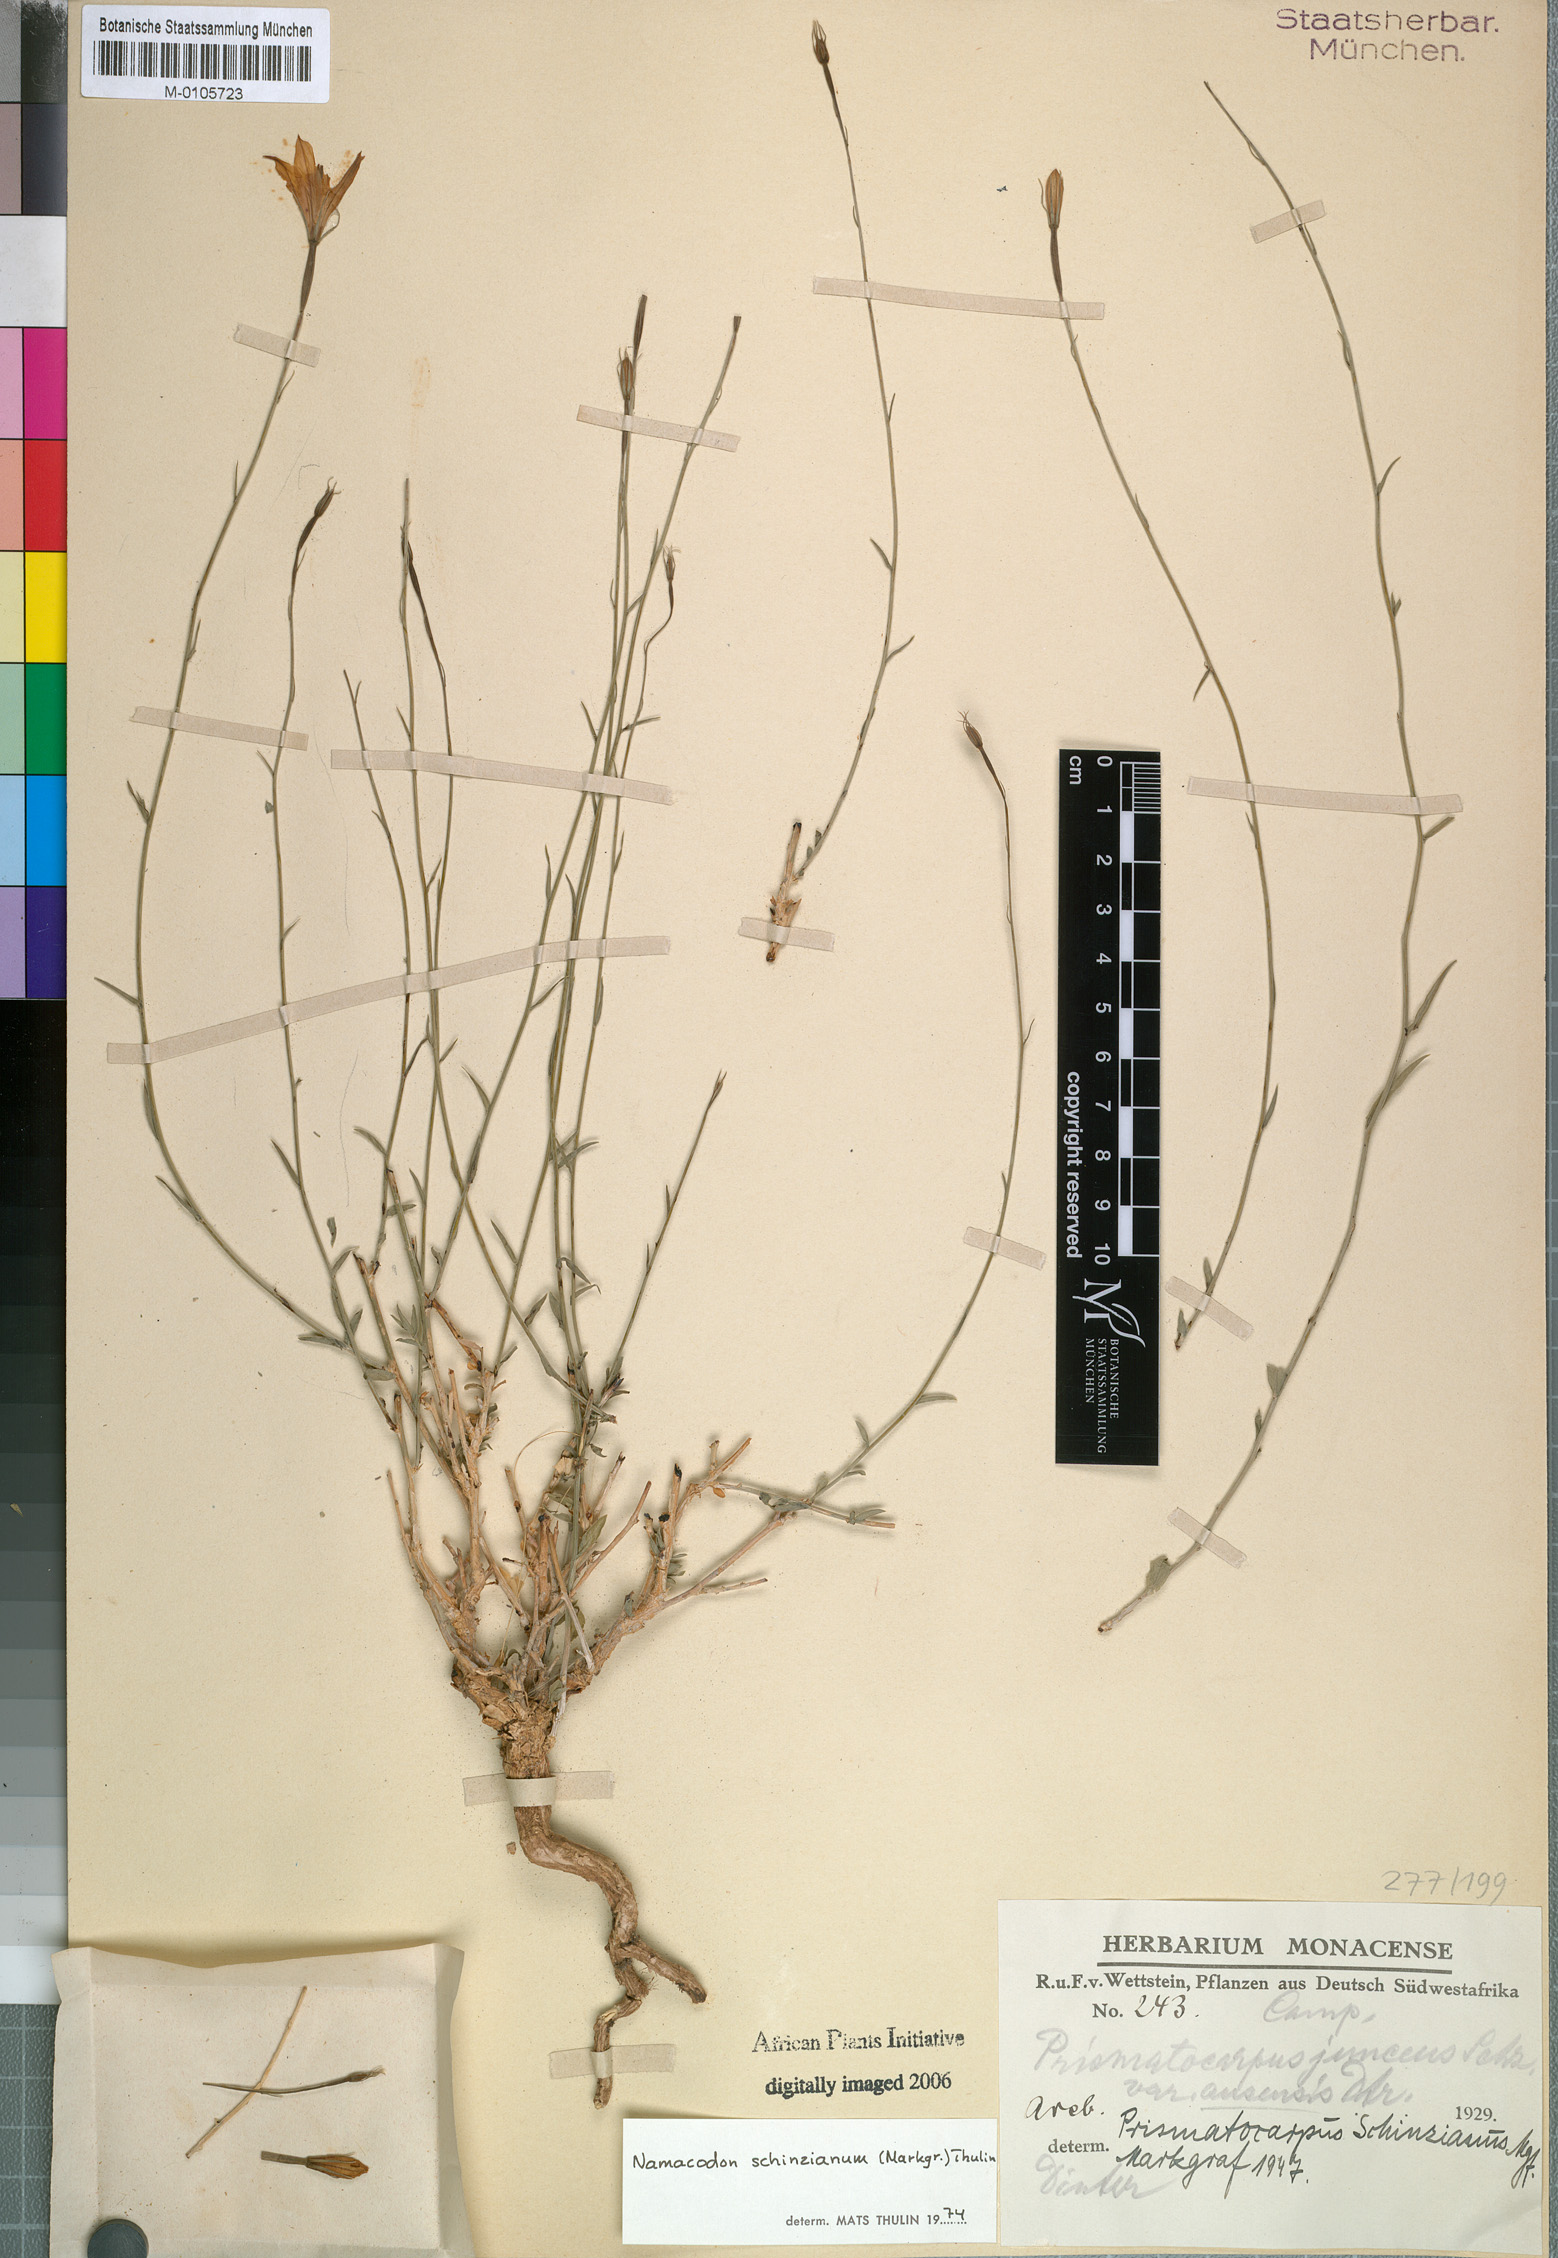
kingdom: Plantae
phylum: Tracheophyta
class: Magnoliopsida
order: Asterales
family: Campanulaceae
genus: Namacodon
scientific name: Namacodon schinzianum
